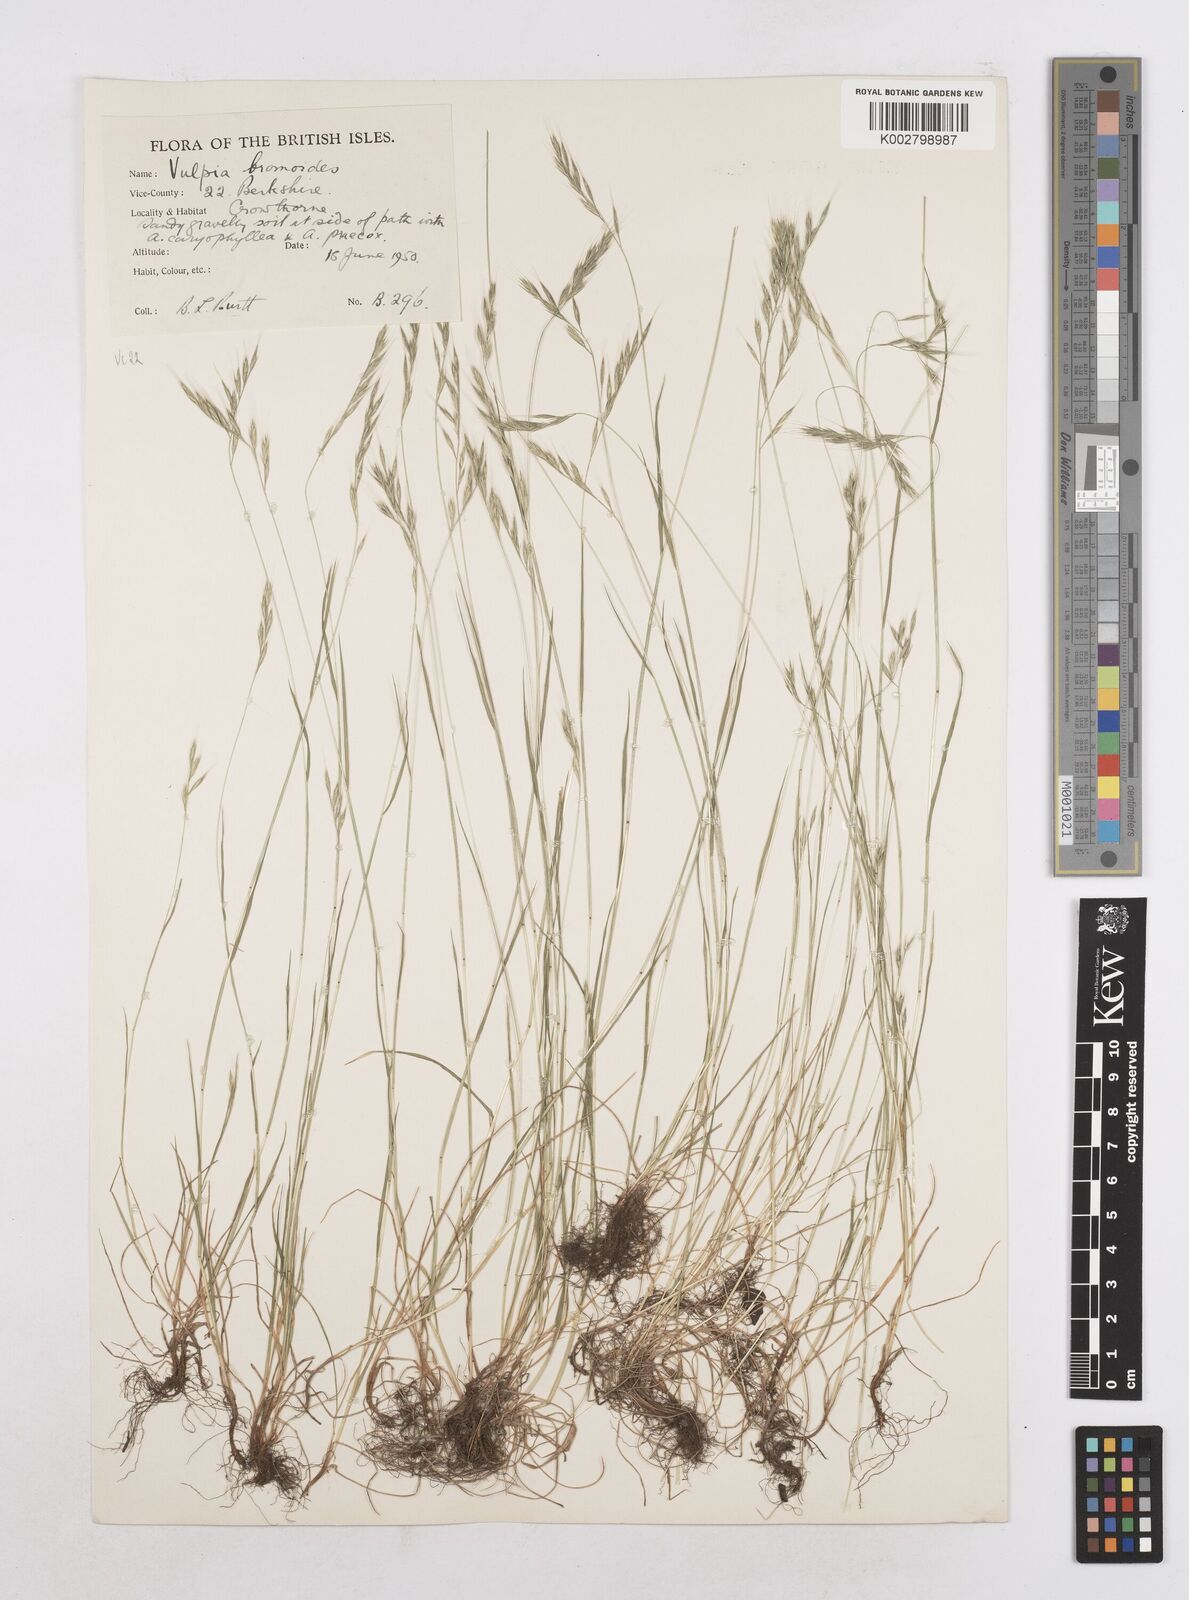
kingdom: Plantae
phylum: Tracheophyta
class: Liliopsida
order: Poales
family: Poaceae
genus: Festuca
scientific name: Festuca bromoides
